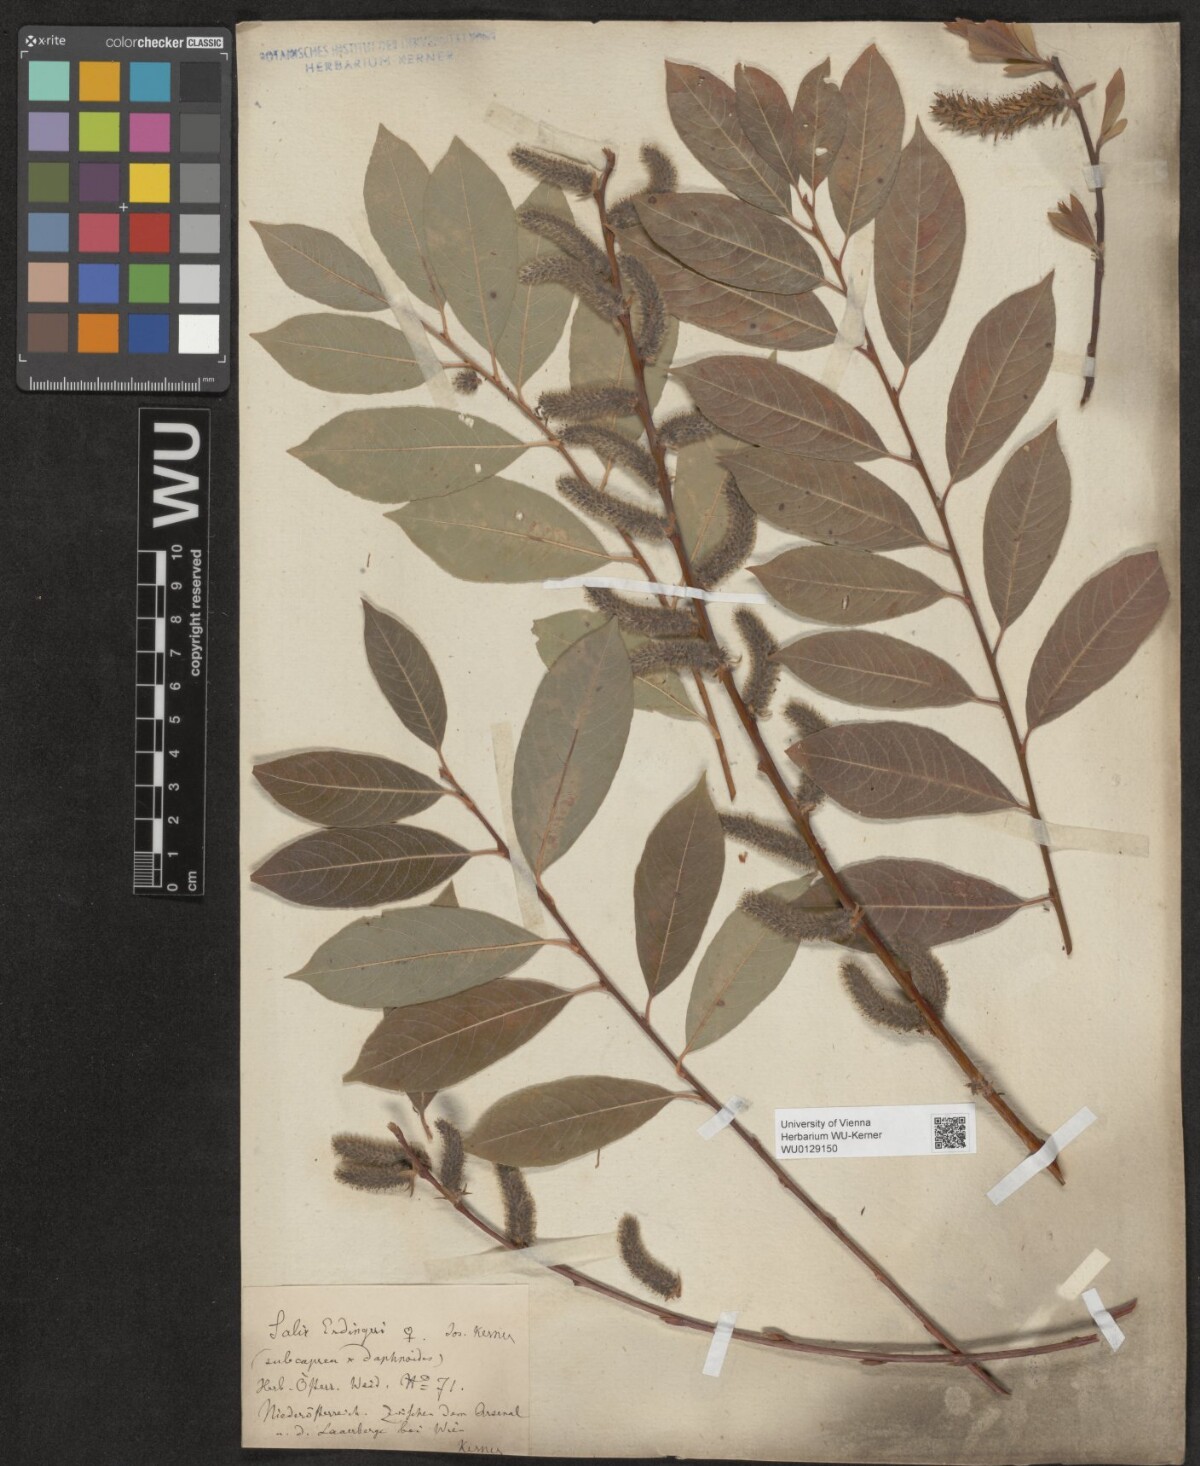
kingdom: Plantae
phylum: Tracheophyta
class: Magnoliopsida
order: Malpighiales
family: Salicaceae
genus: Salix
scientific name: Salix erdingeri
